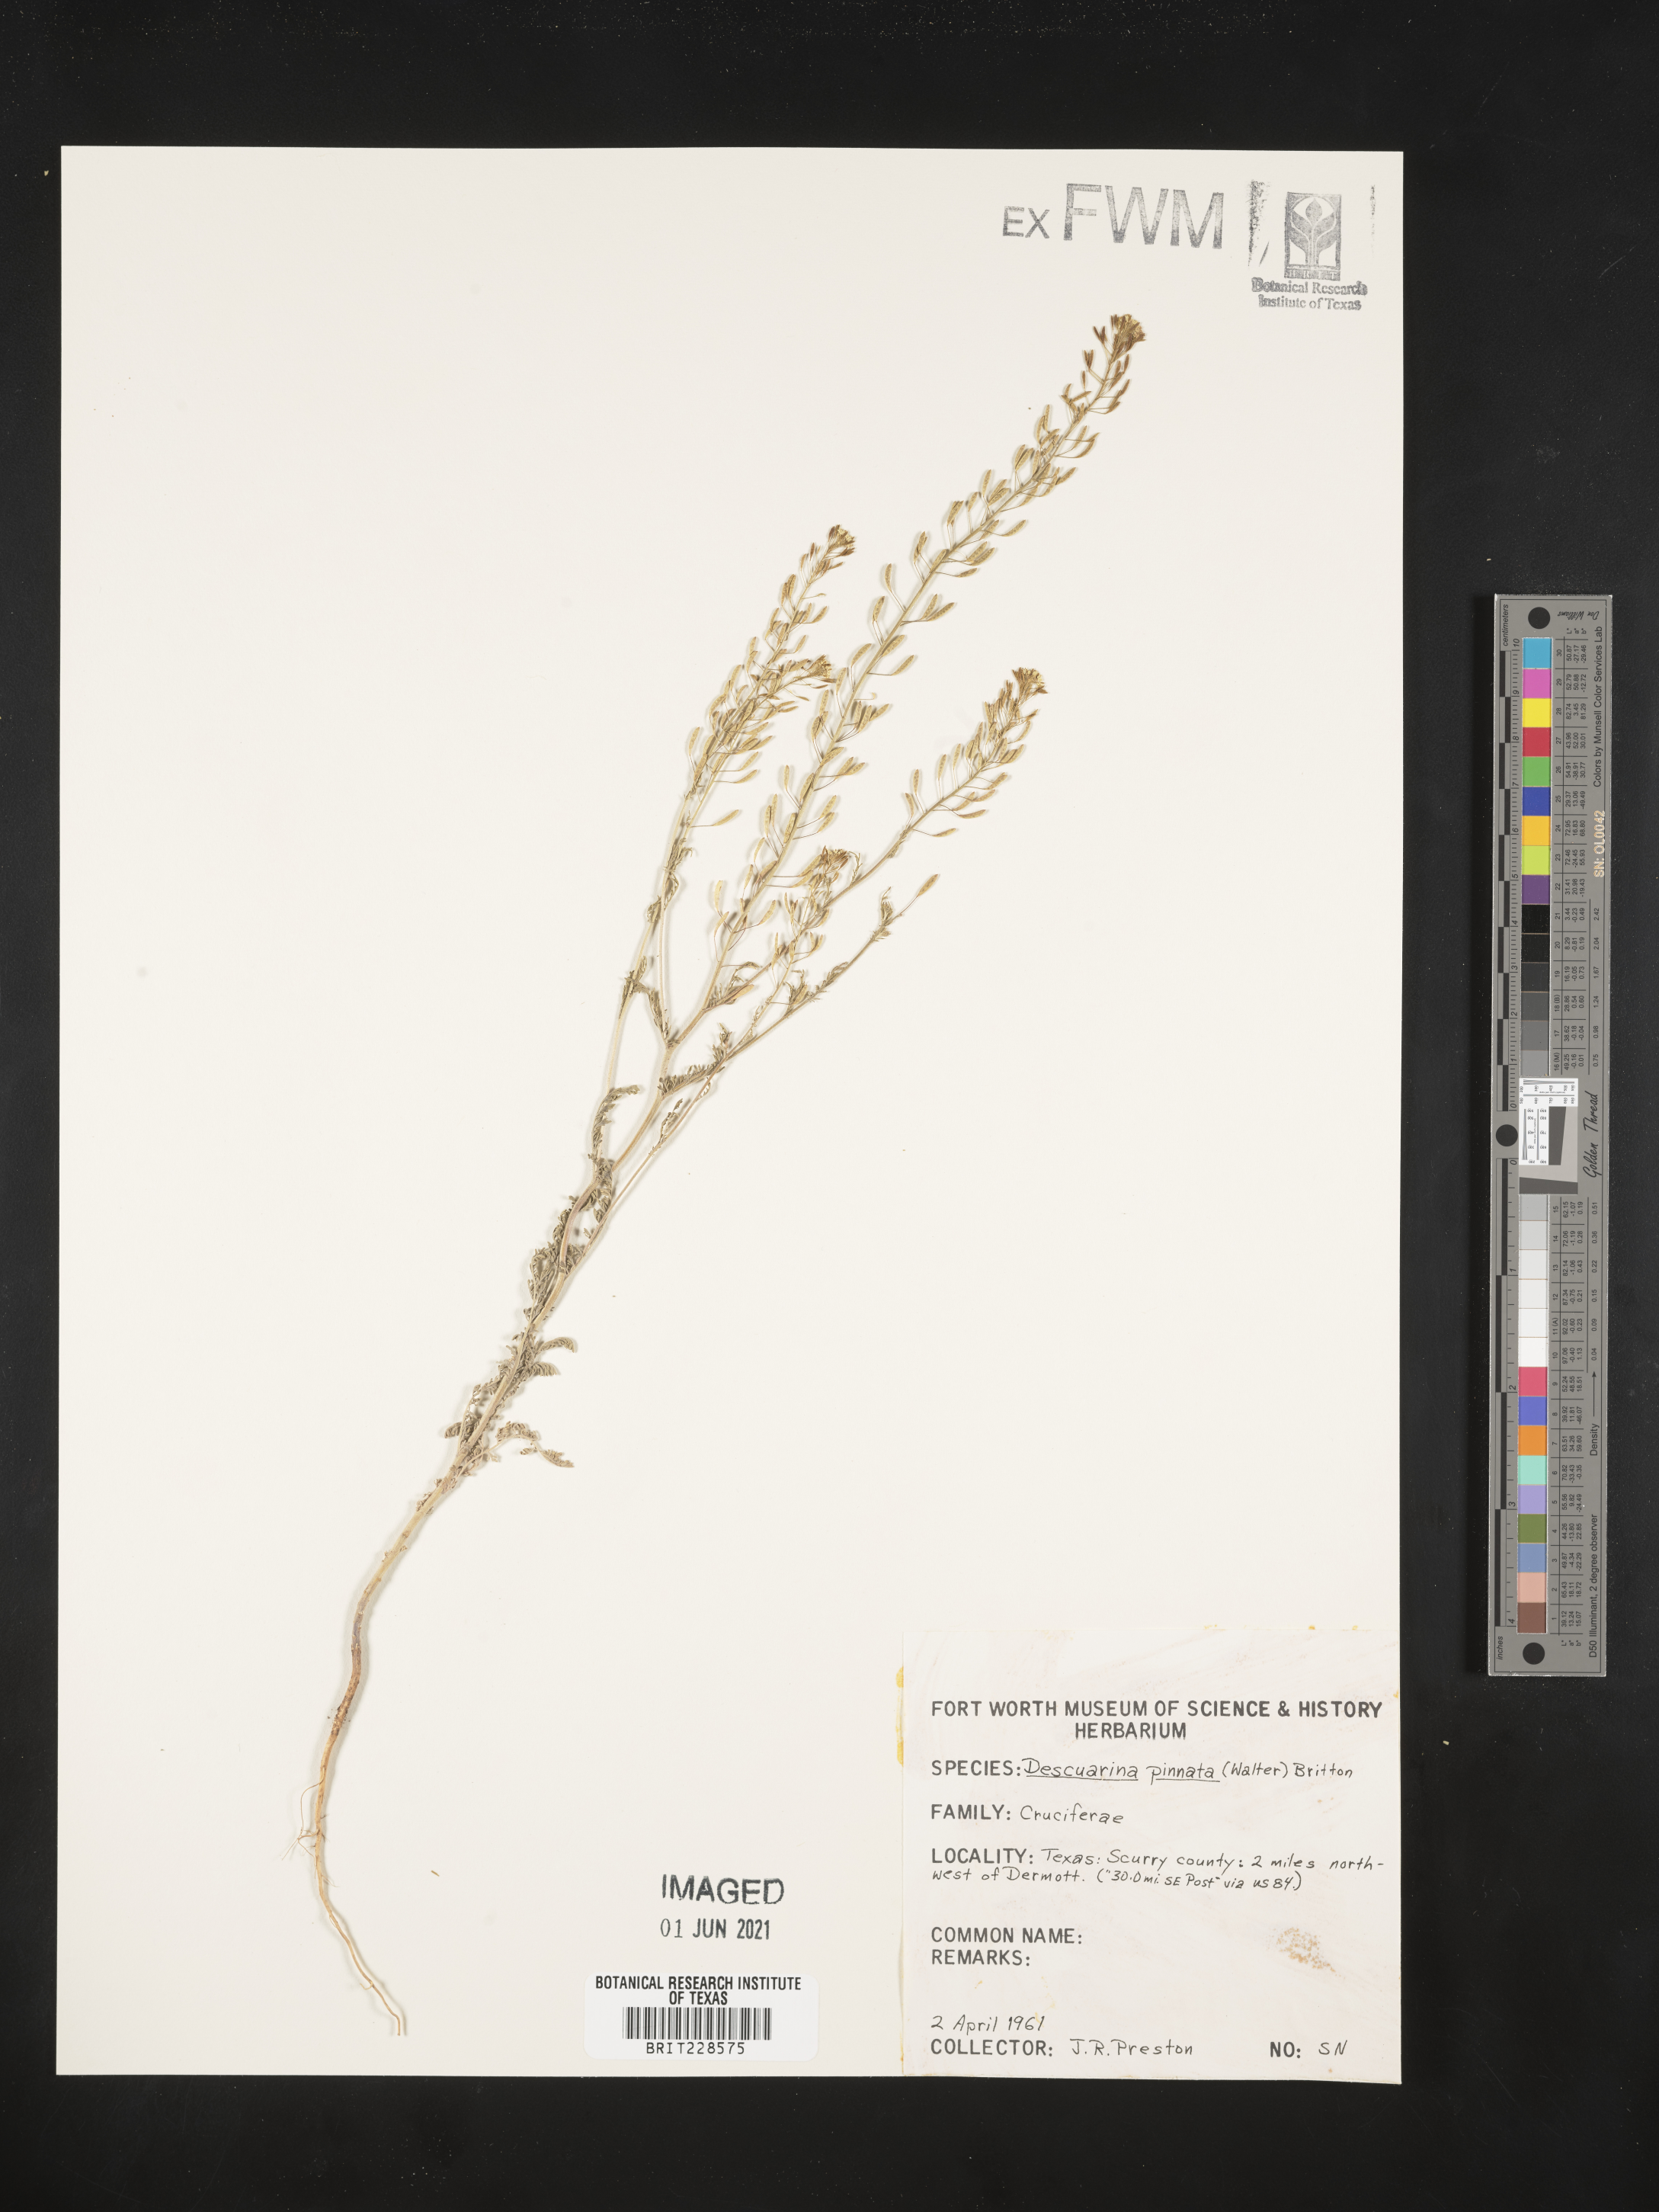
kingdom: Plantae
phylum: Tracheophyta
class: Magnoliopsida
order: Brassicales
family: Brassicaceae
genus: Descurainia
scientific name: Descurainia pinnata
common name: Western tansy mustard
